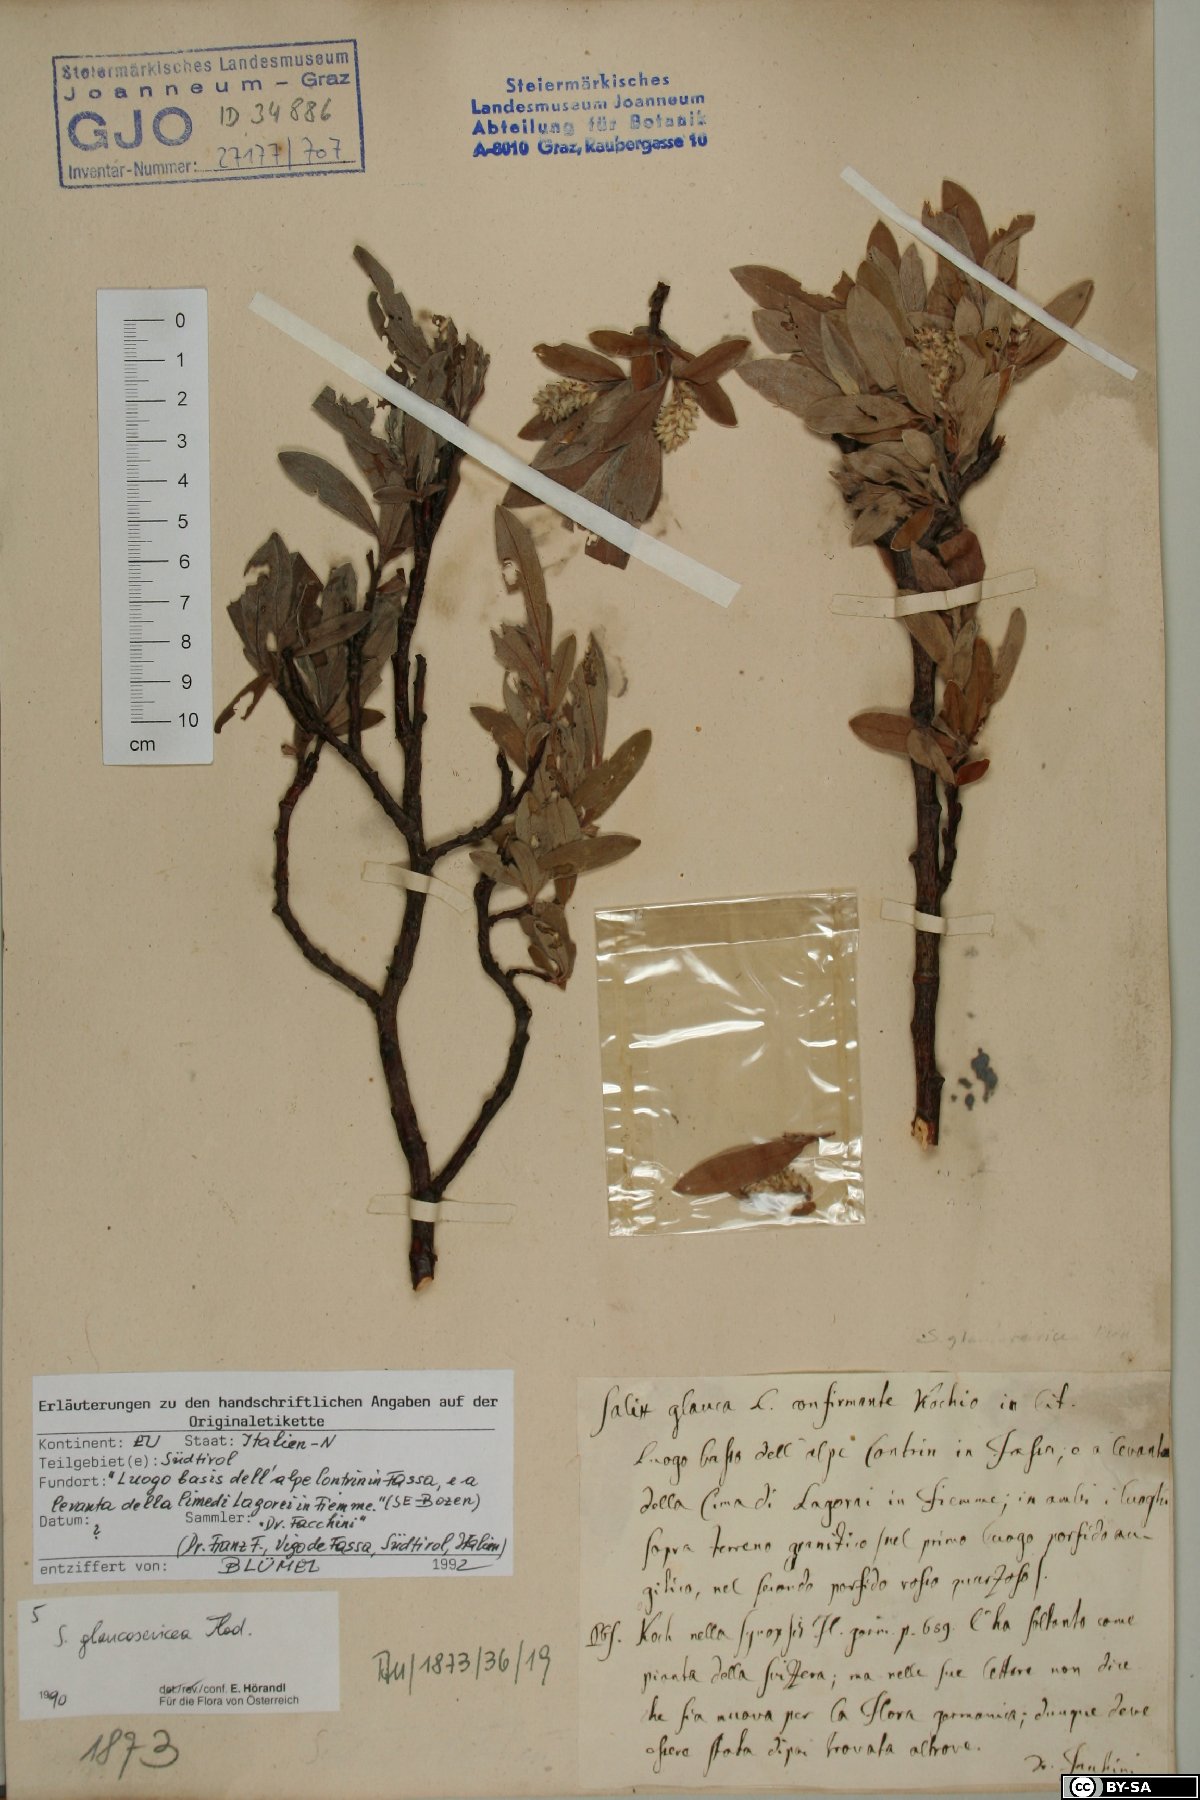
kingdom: Plantae
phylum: Tracheophyta
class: Magnoliopsida
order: Malpighiales
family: Salicaceae
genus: Salix
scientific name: Salix glaucosericea
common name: Alpine gray willow
